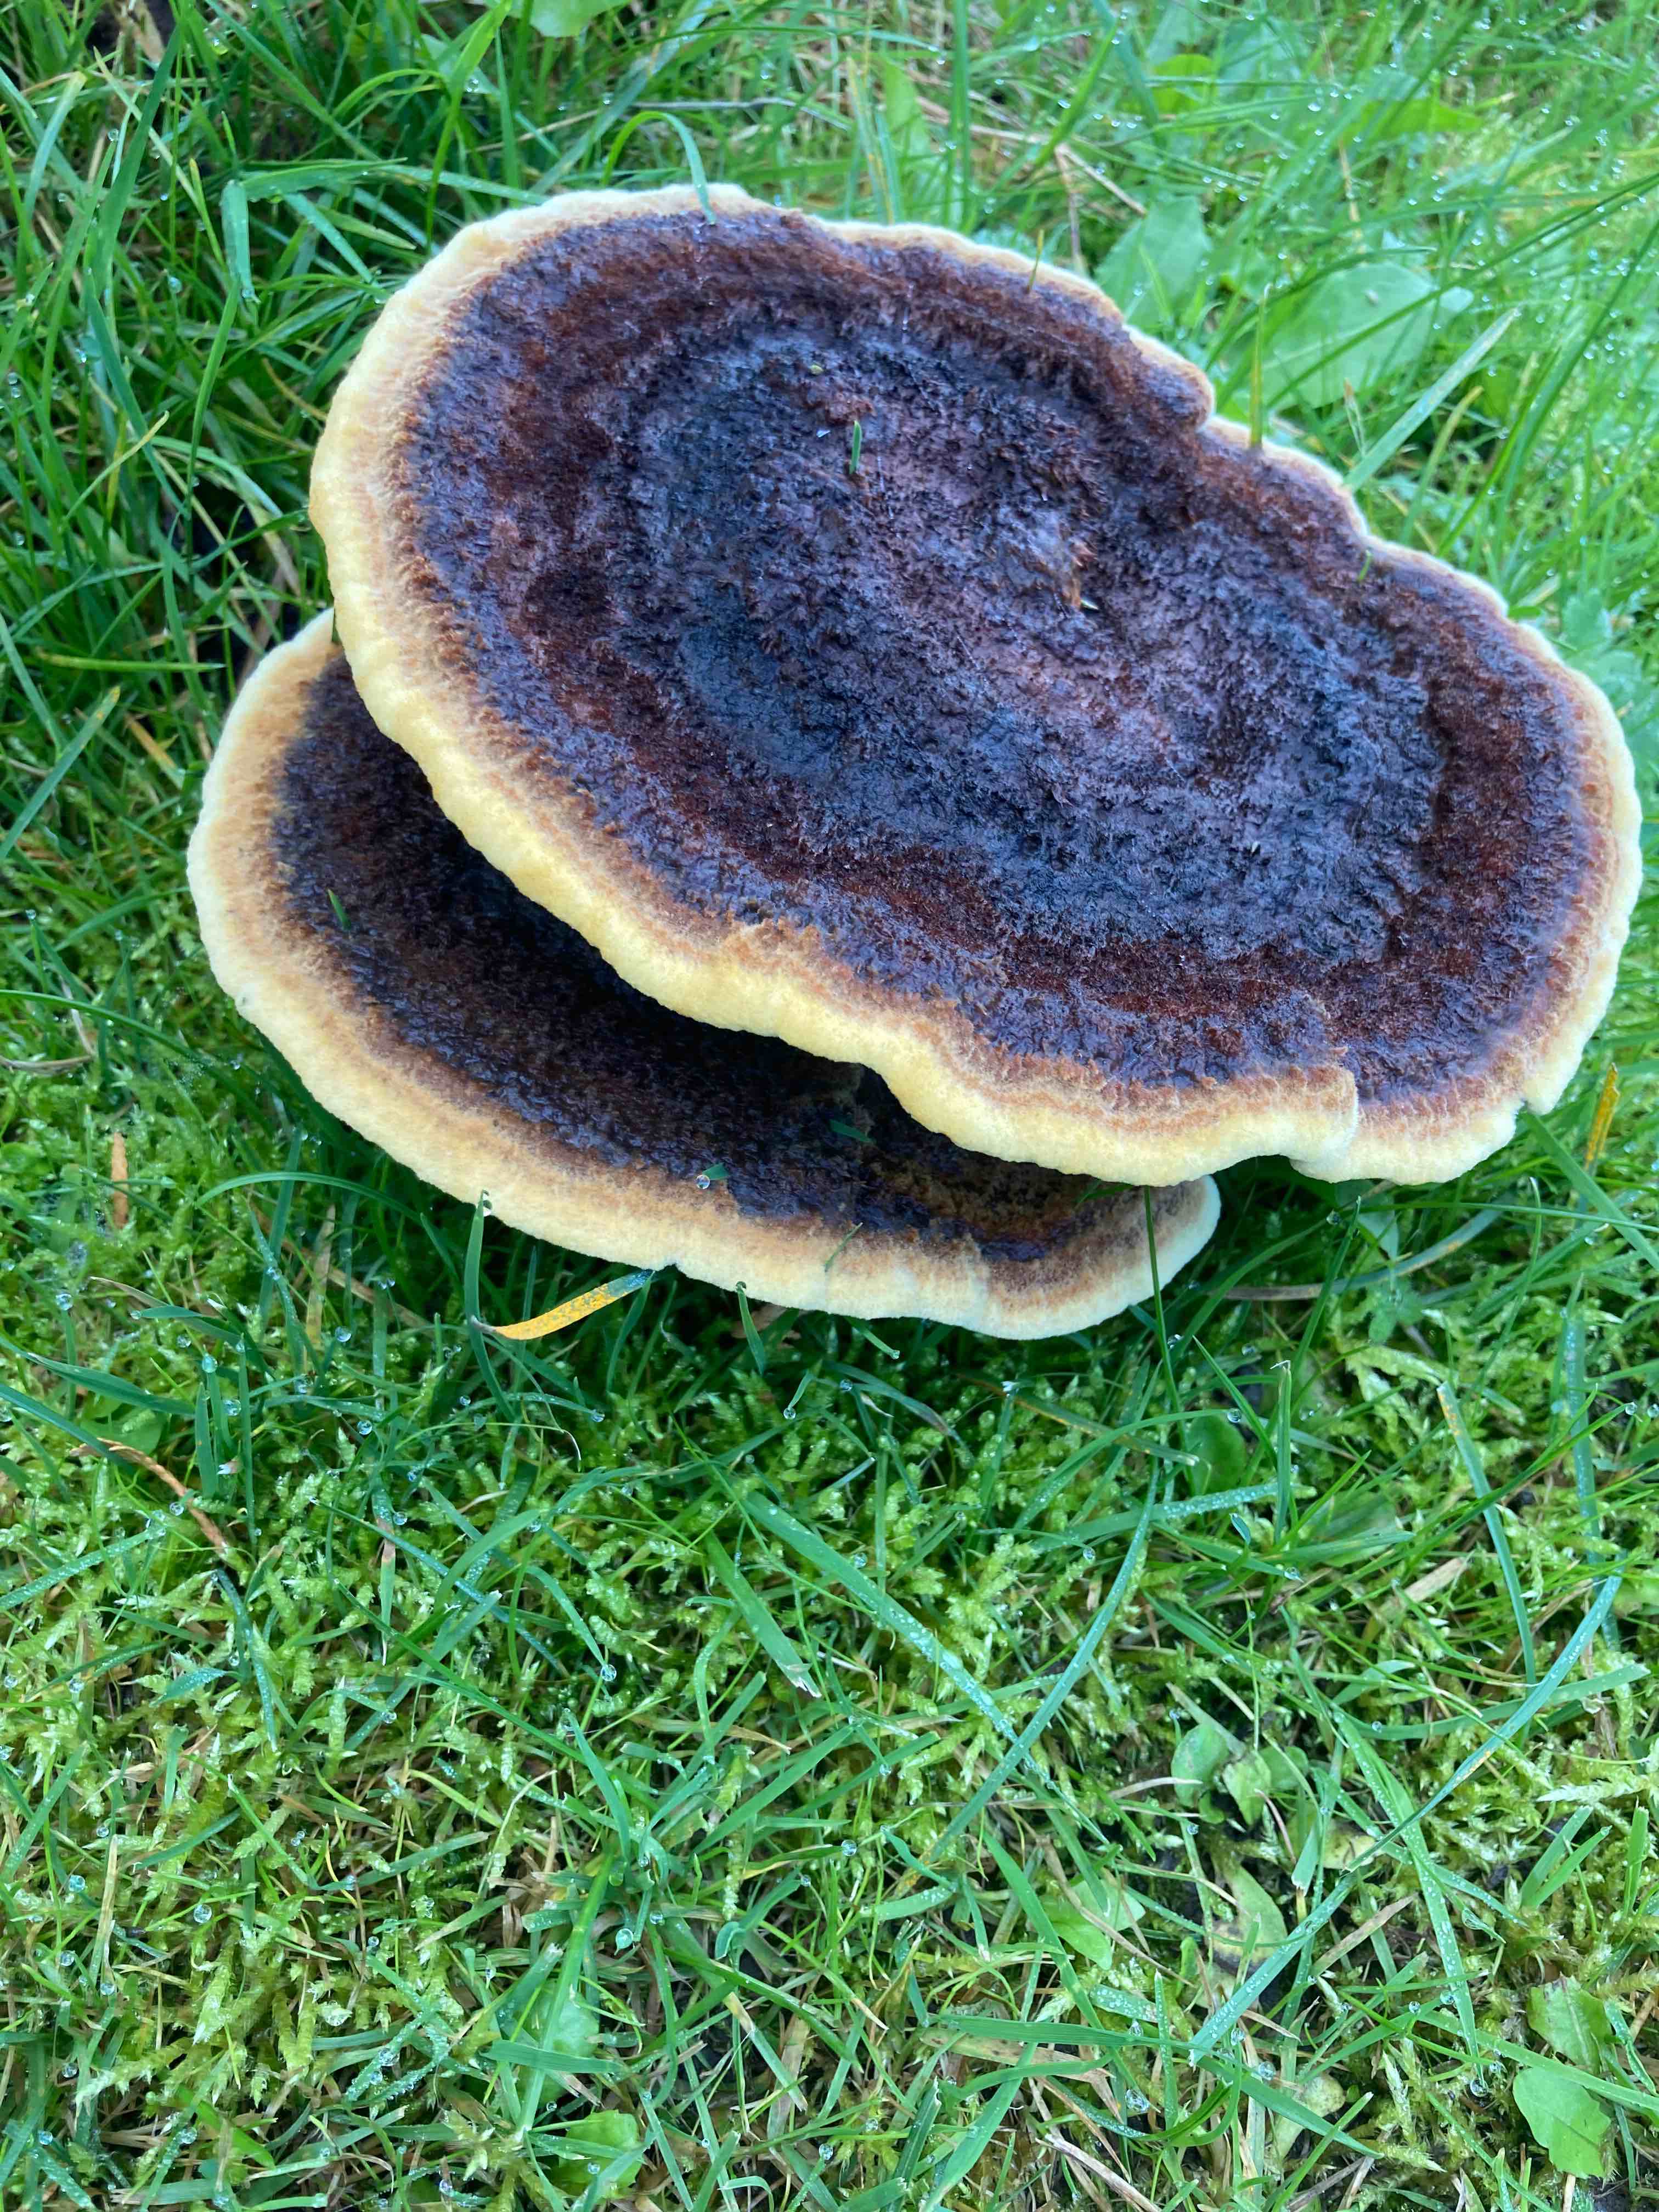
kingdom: Fungi
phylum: Basidiomycota
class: Agaricomycetes
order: Polyporales
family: Laetiporaceae
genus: Phaeolus
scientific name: Phaeolus schweinitzii
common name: brunporesvamp
